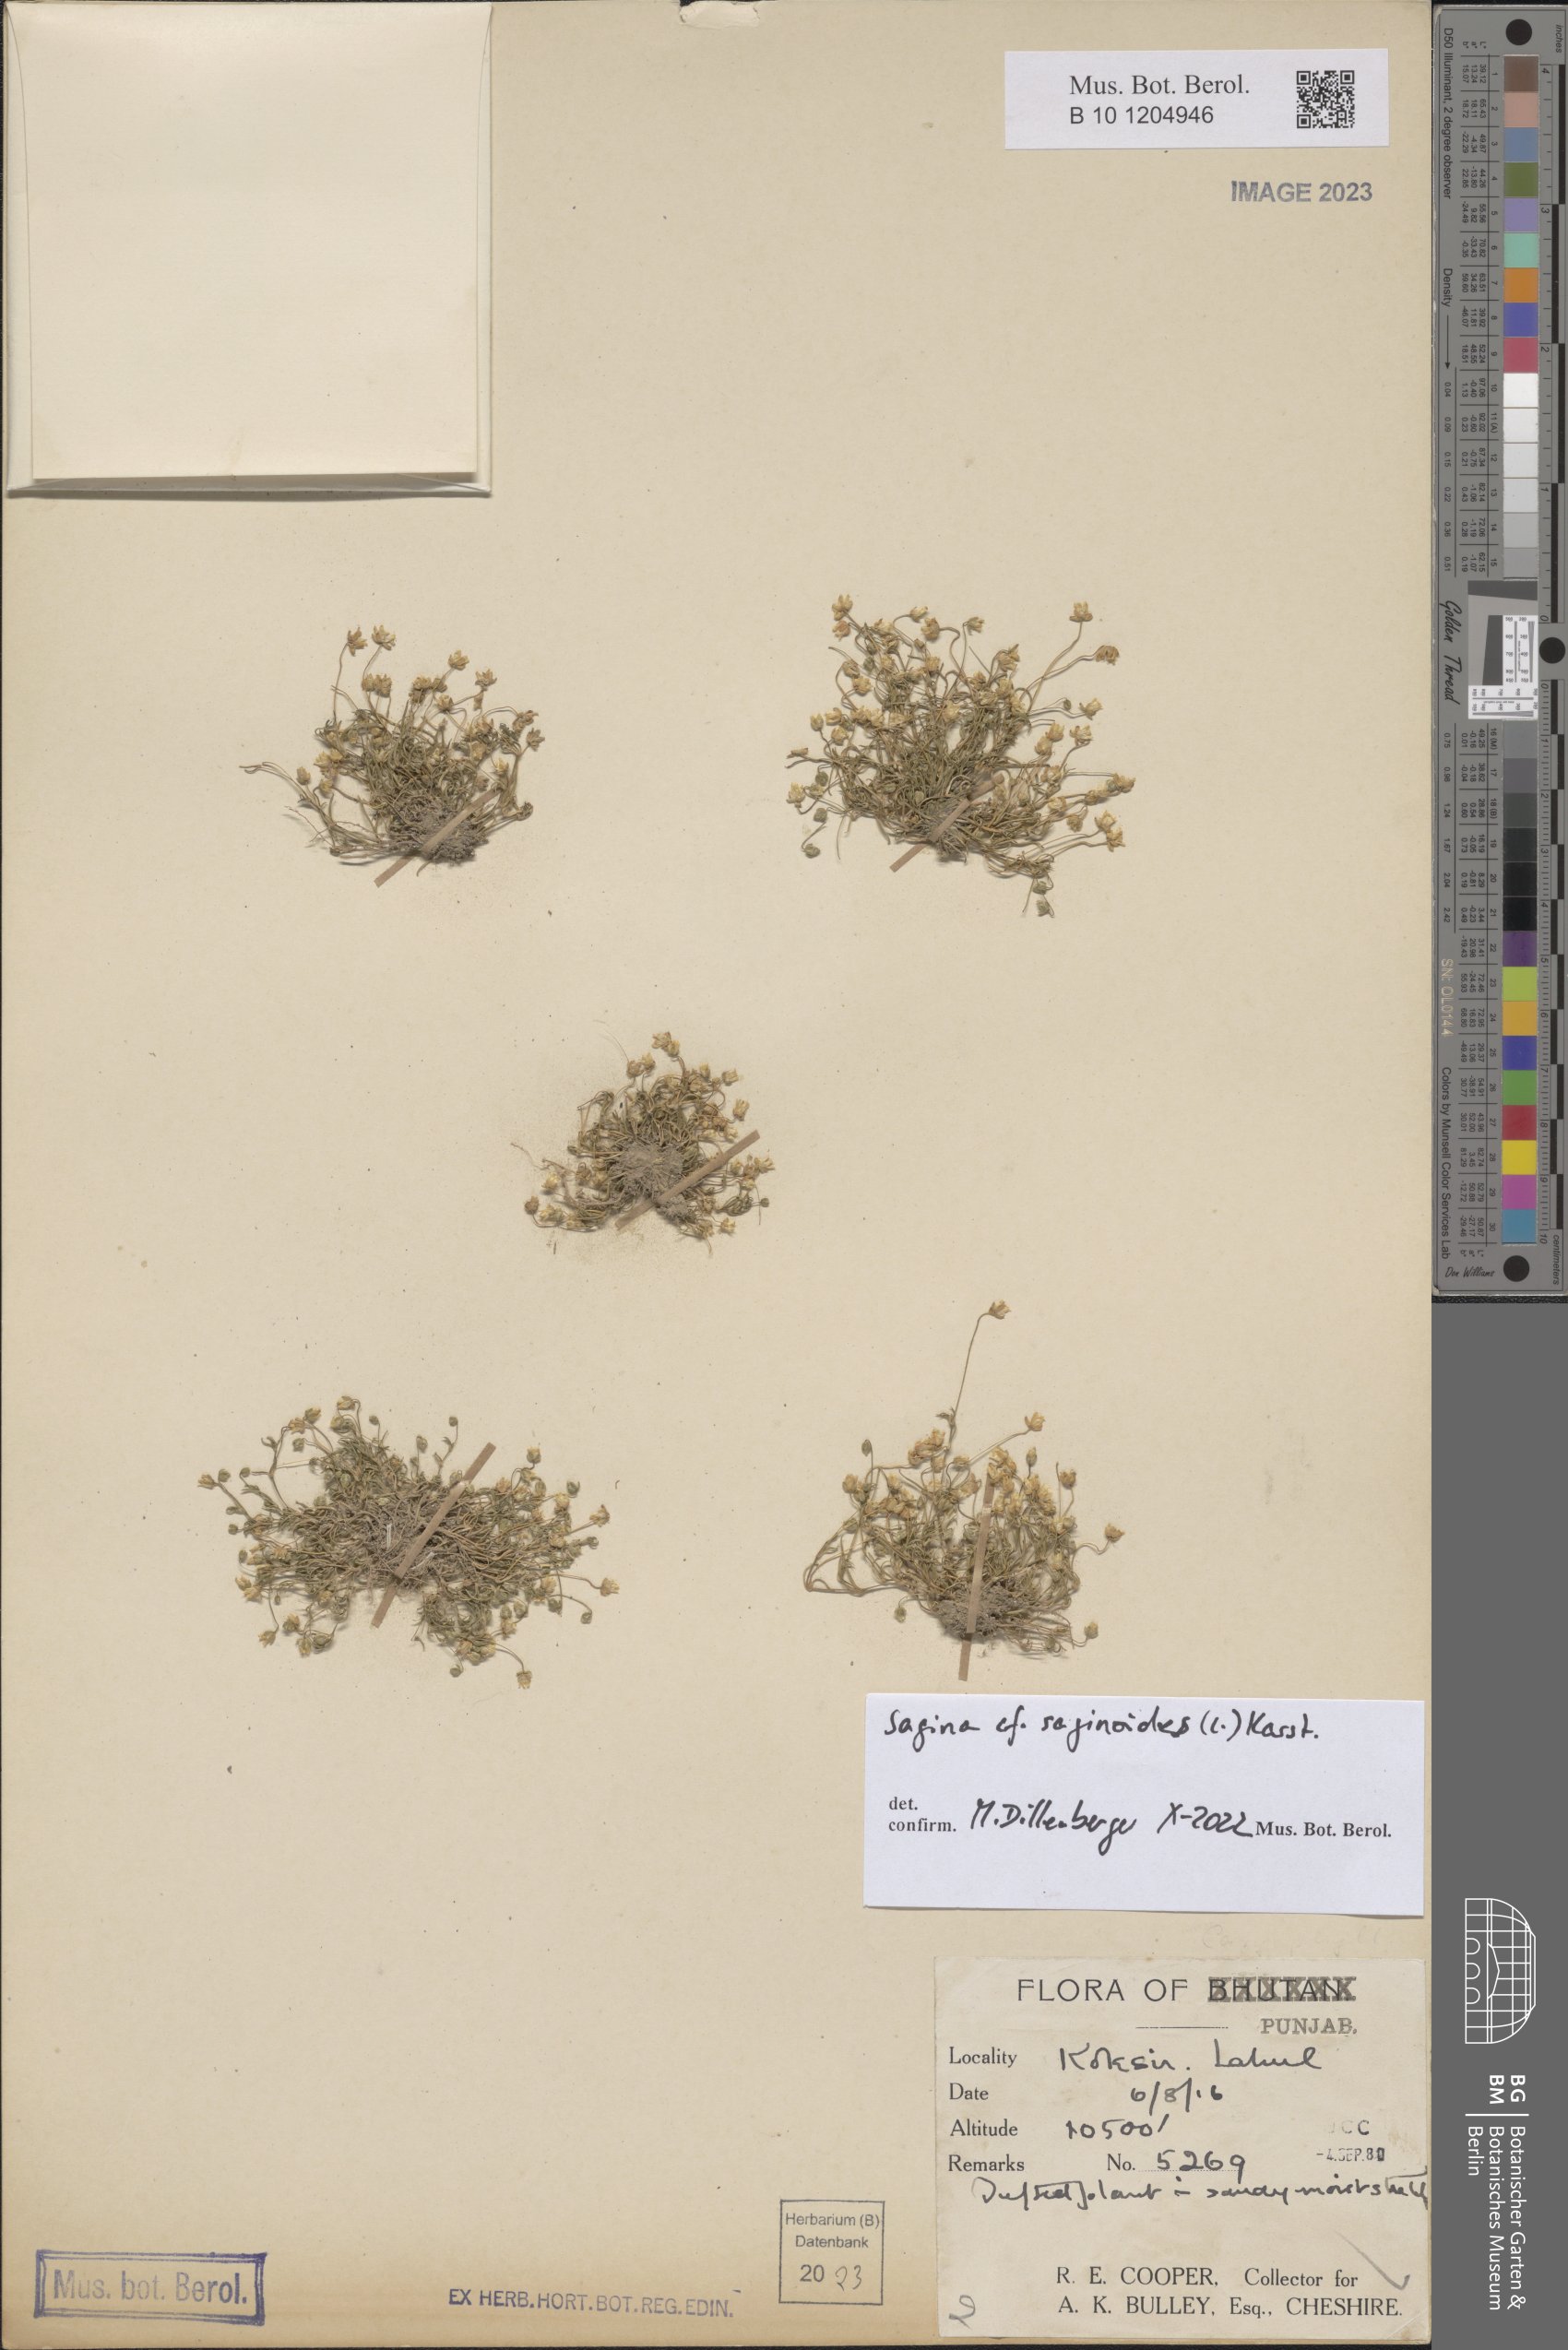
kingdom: Plantae
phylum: Tracheophyta
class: Magnoliopsida
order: Caryophyllales
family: Caryophyllaceae
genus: Sagina
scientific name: Sagina saginoides
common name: Alpine pearlwort
